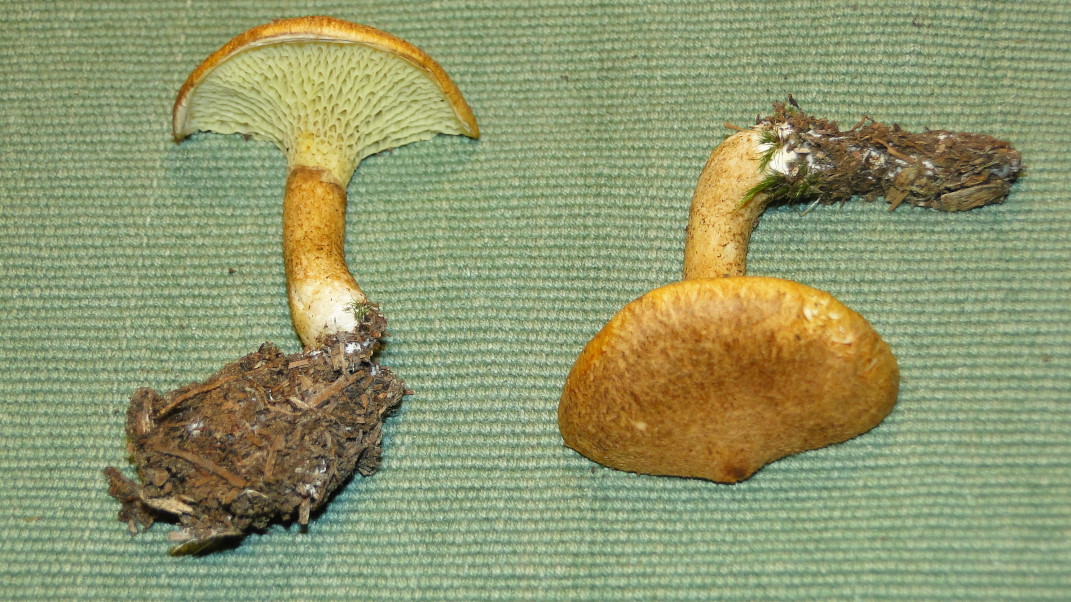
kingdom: Fungi
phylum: Basidiomycota
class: Agaricomycetes
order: Boletales
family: Suillaceae
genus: Suillus
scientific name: Suillus cavipes
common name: hulstokket slimrørhat
